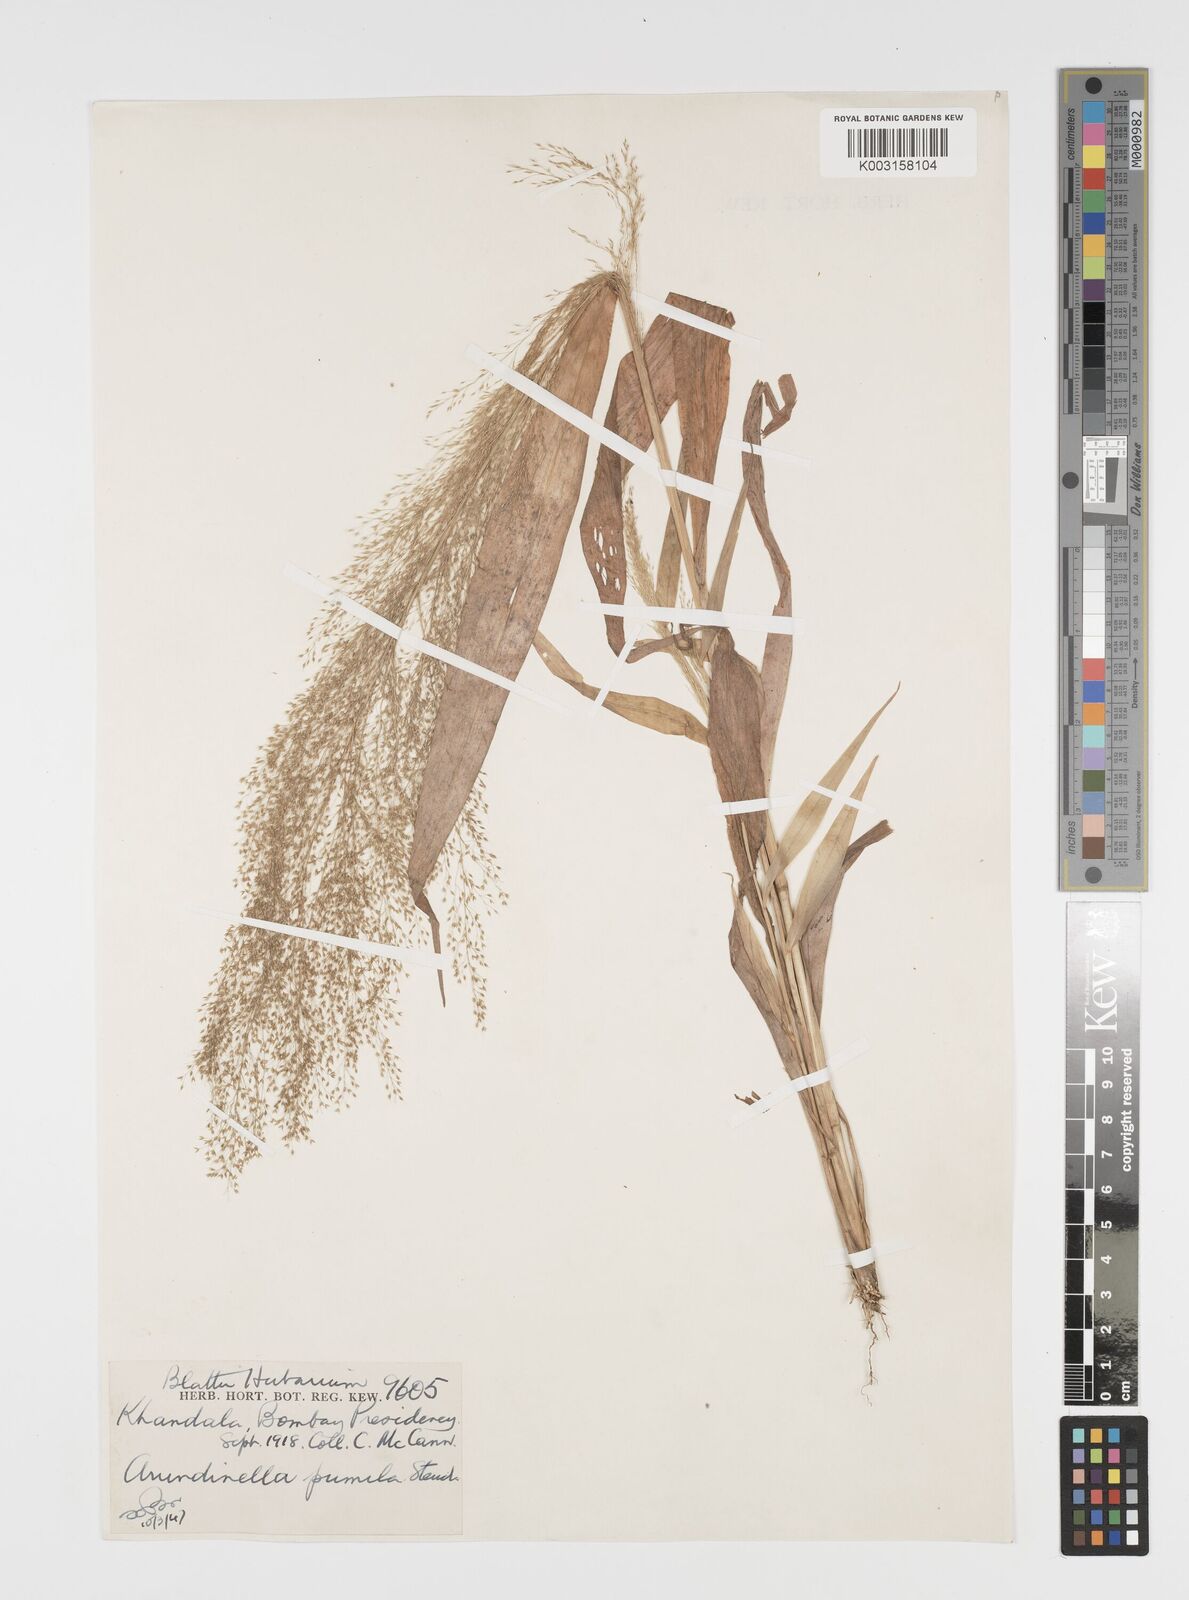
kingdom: Plantae
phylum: Tracheophyta
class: Liliopsida
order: Poales
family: Poaceae
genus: Arundinella
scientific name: Arundinella pumila
